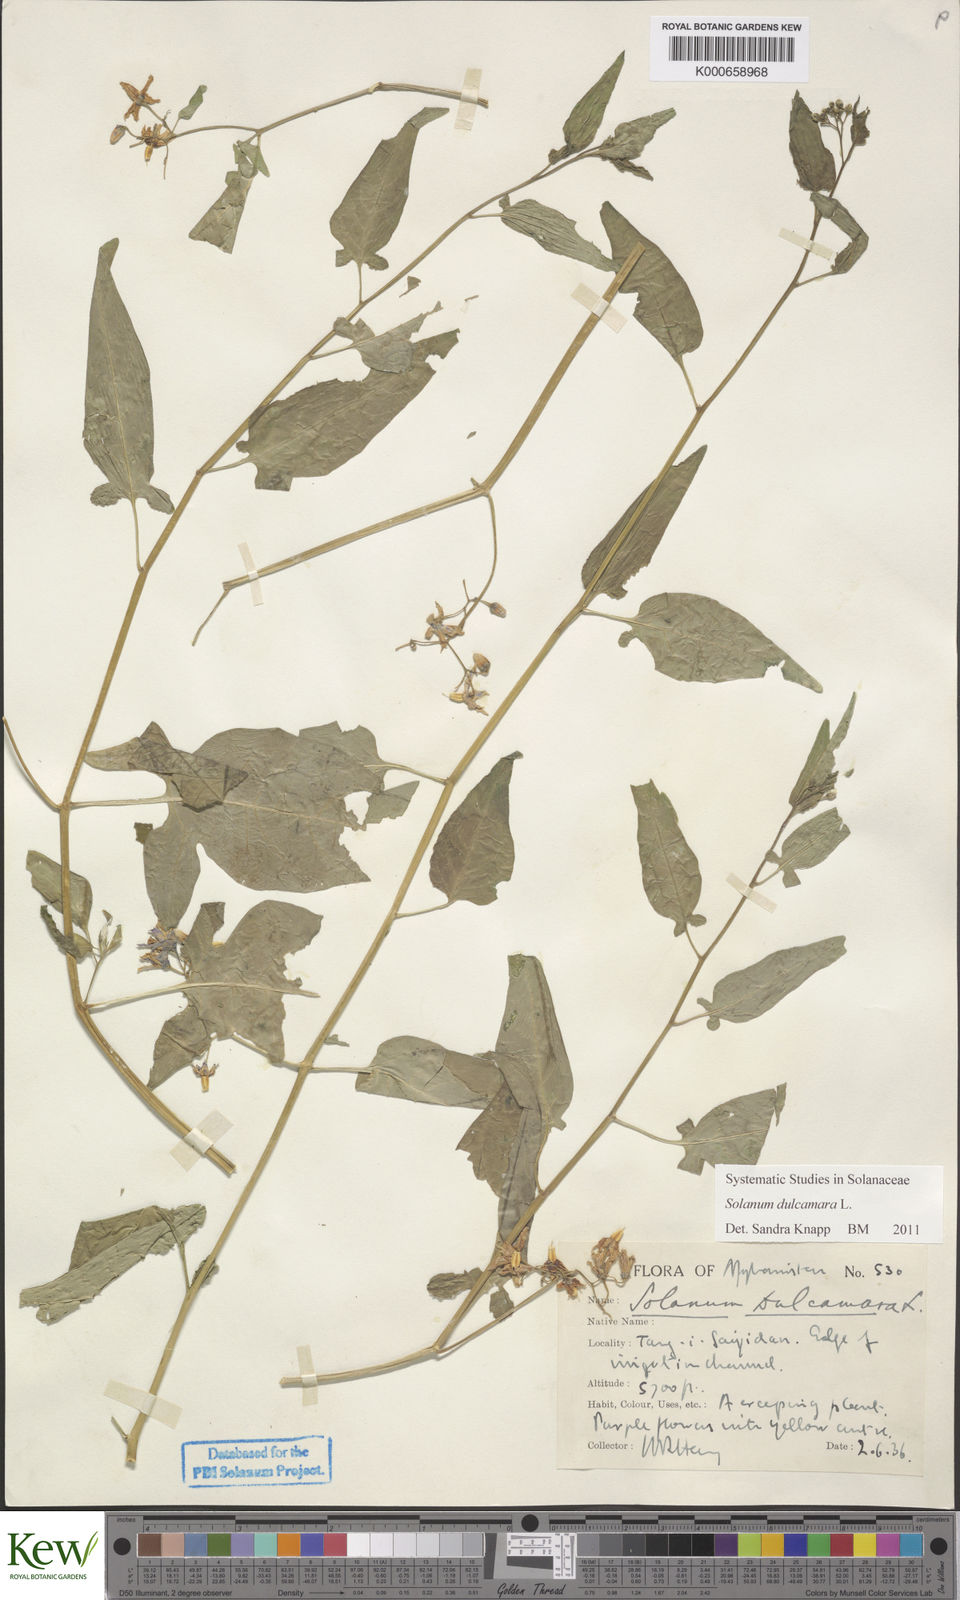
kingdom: Plantae
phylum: Tracheophyta
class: Magnoliopsida
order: Solanales
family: Solanaceae
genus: Solanum
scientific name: Solanum dulcamara
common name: Climbing nightshade
